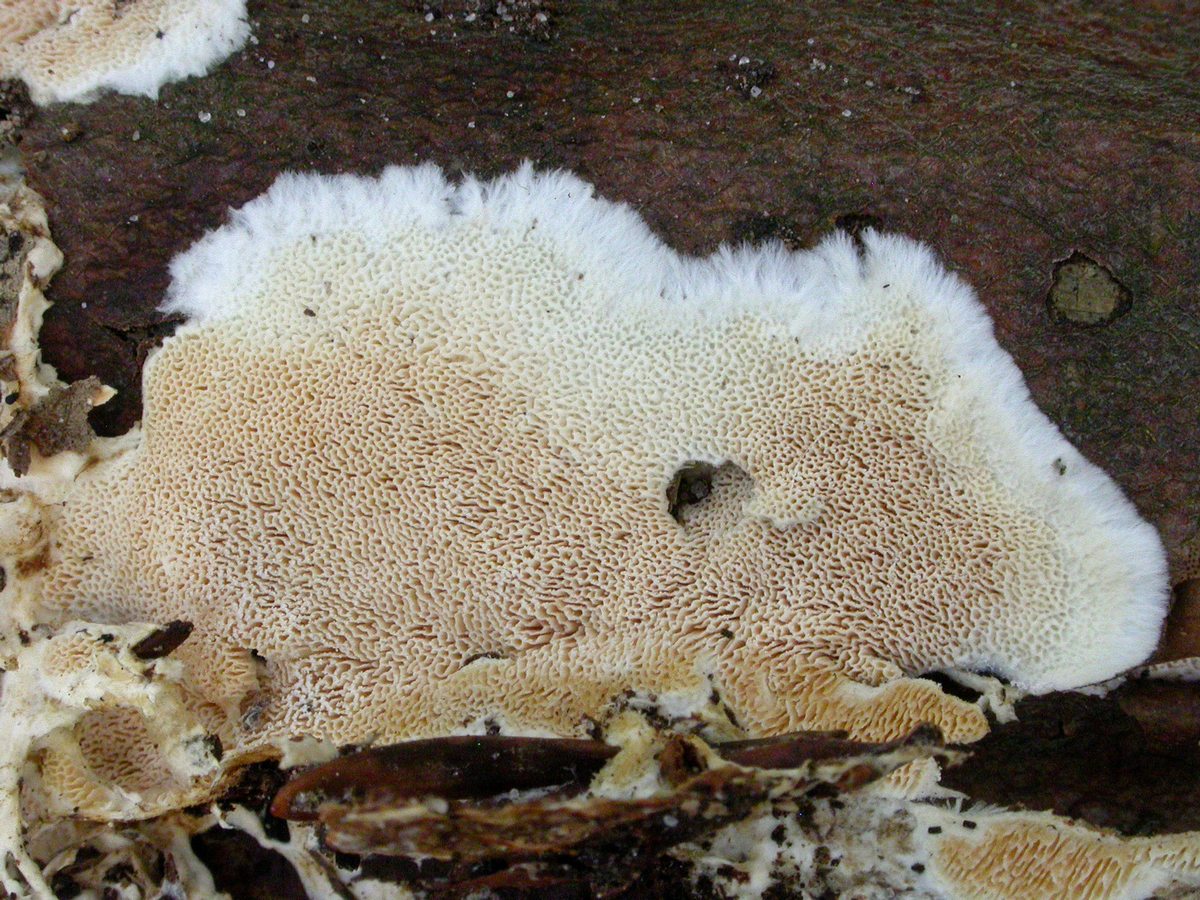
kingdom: Fungi
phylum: Basidiomycota
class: Agaricomycetes
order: Polyporales
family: Steccherinaceae
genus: Steccherinum
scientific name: Steccherinum lacerum
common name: trådet skønporesvamp
